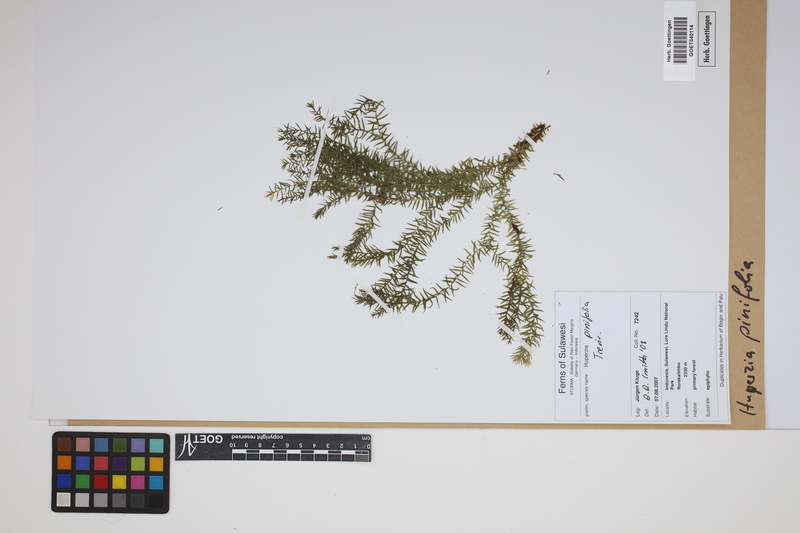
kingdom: Plantae
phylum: Tracheophyta
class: Lycopodiopsida
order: Lycopodiales
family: Lycopodiaceae
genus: Phlegmariurus
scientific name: Phlegmariurus pinifolius
